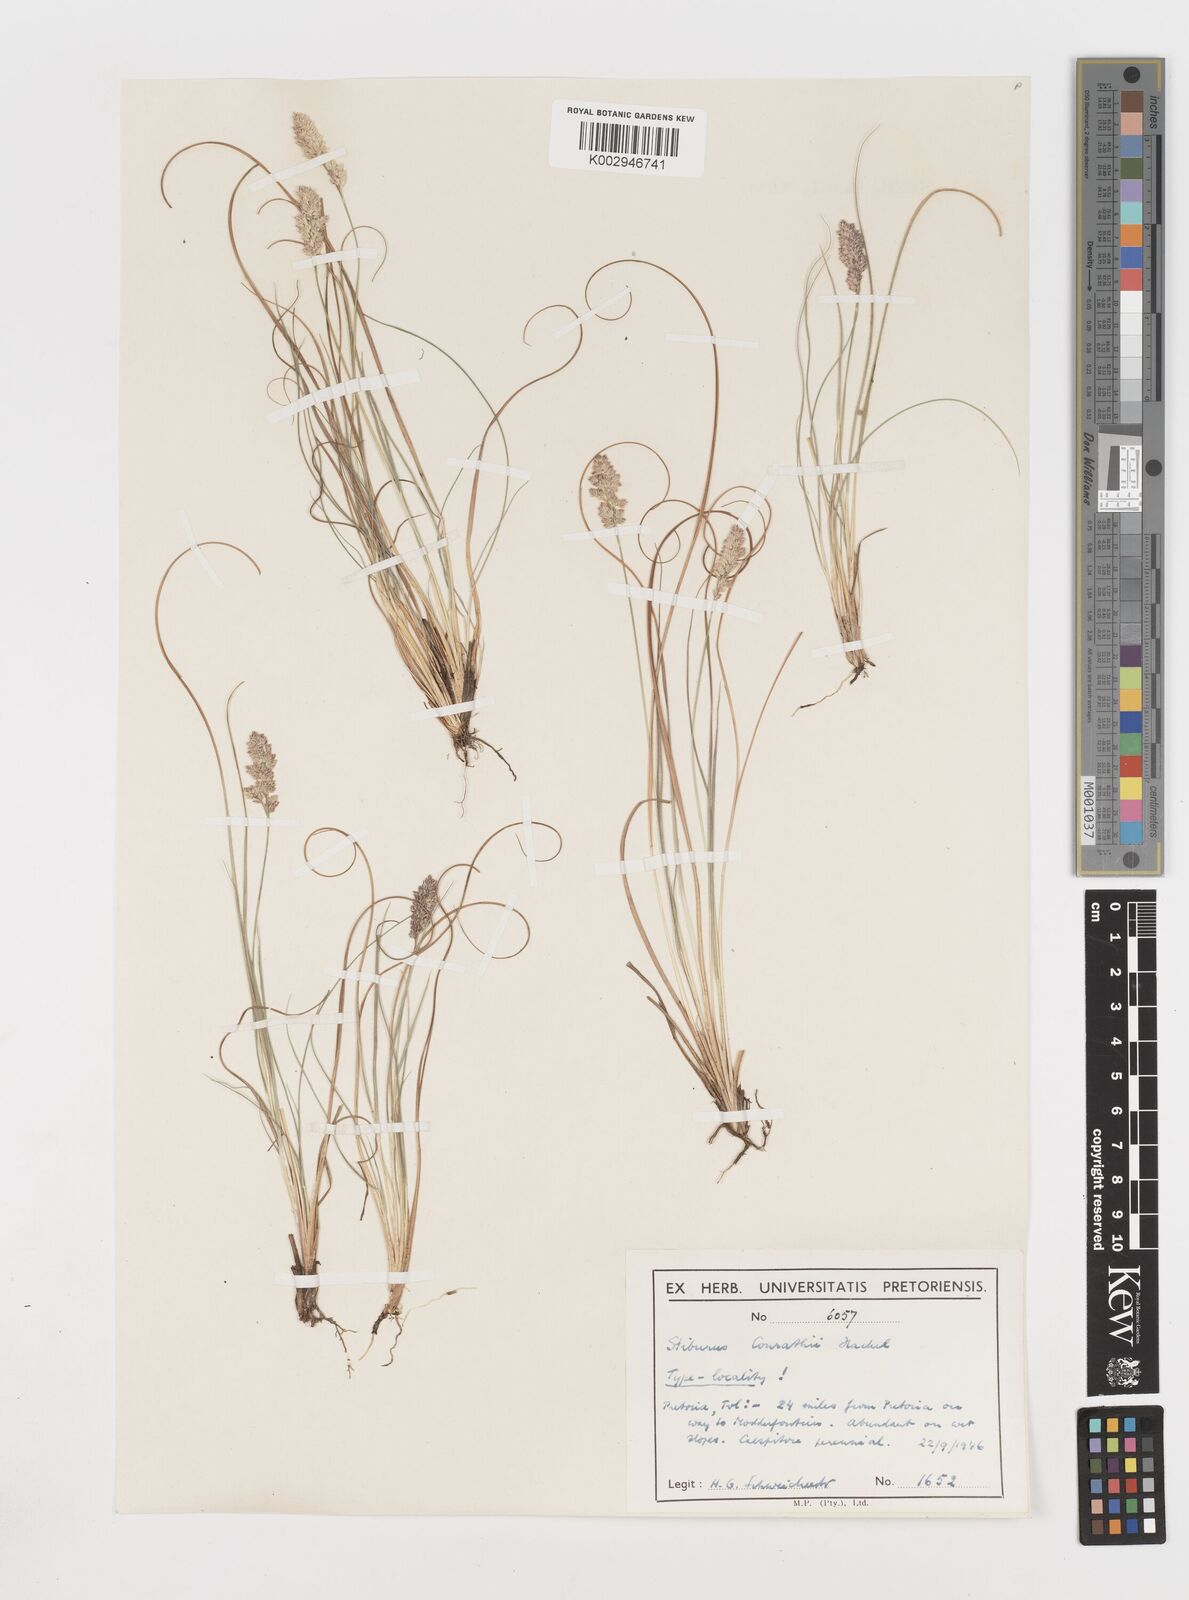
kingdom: Plantae
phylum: Tracheophyta
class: Liliopsida
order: Poales
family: Poaceae
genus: Stiburus
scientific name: Stiburus conrathii
